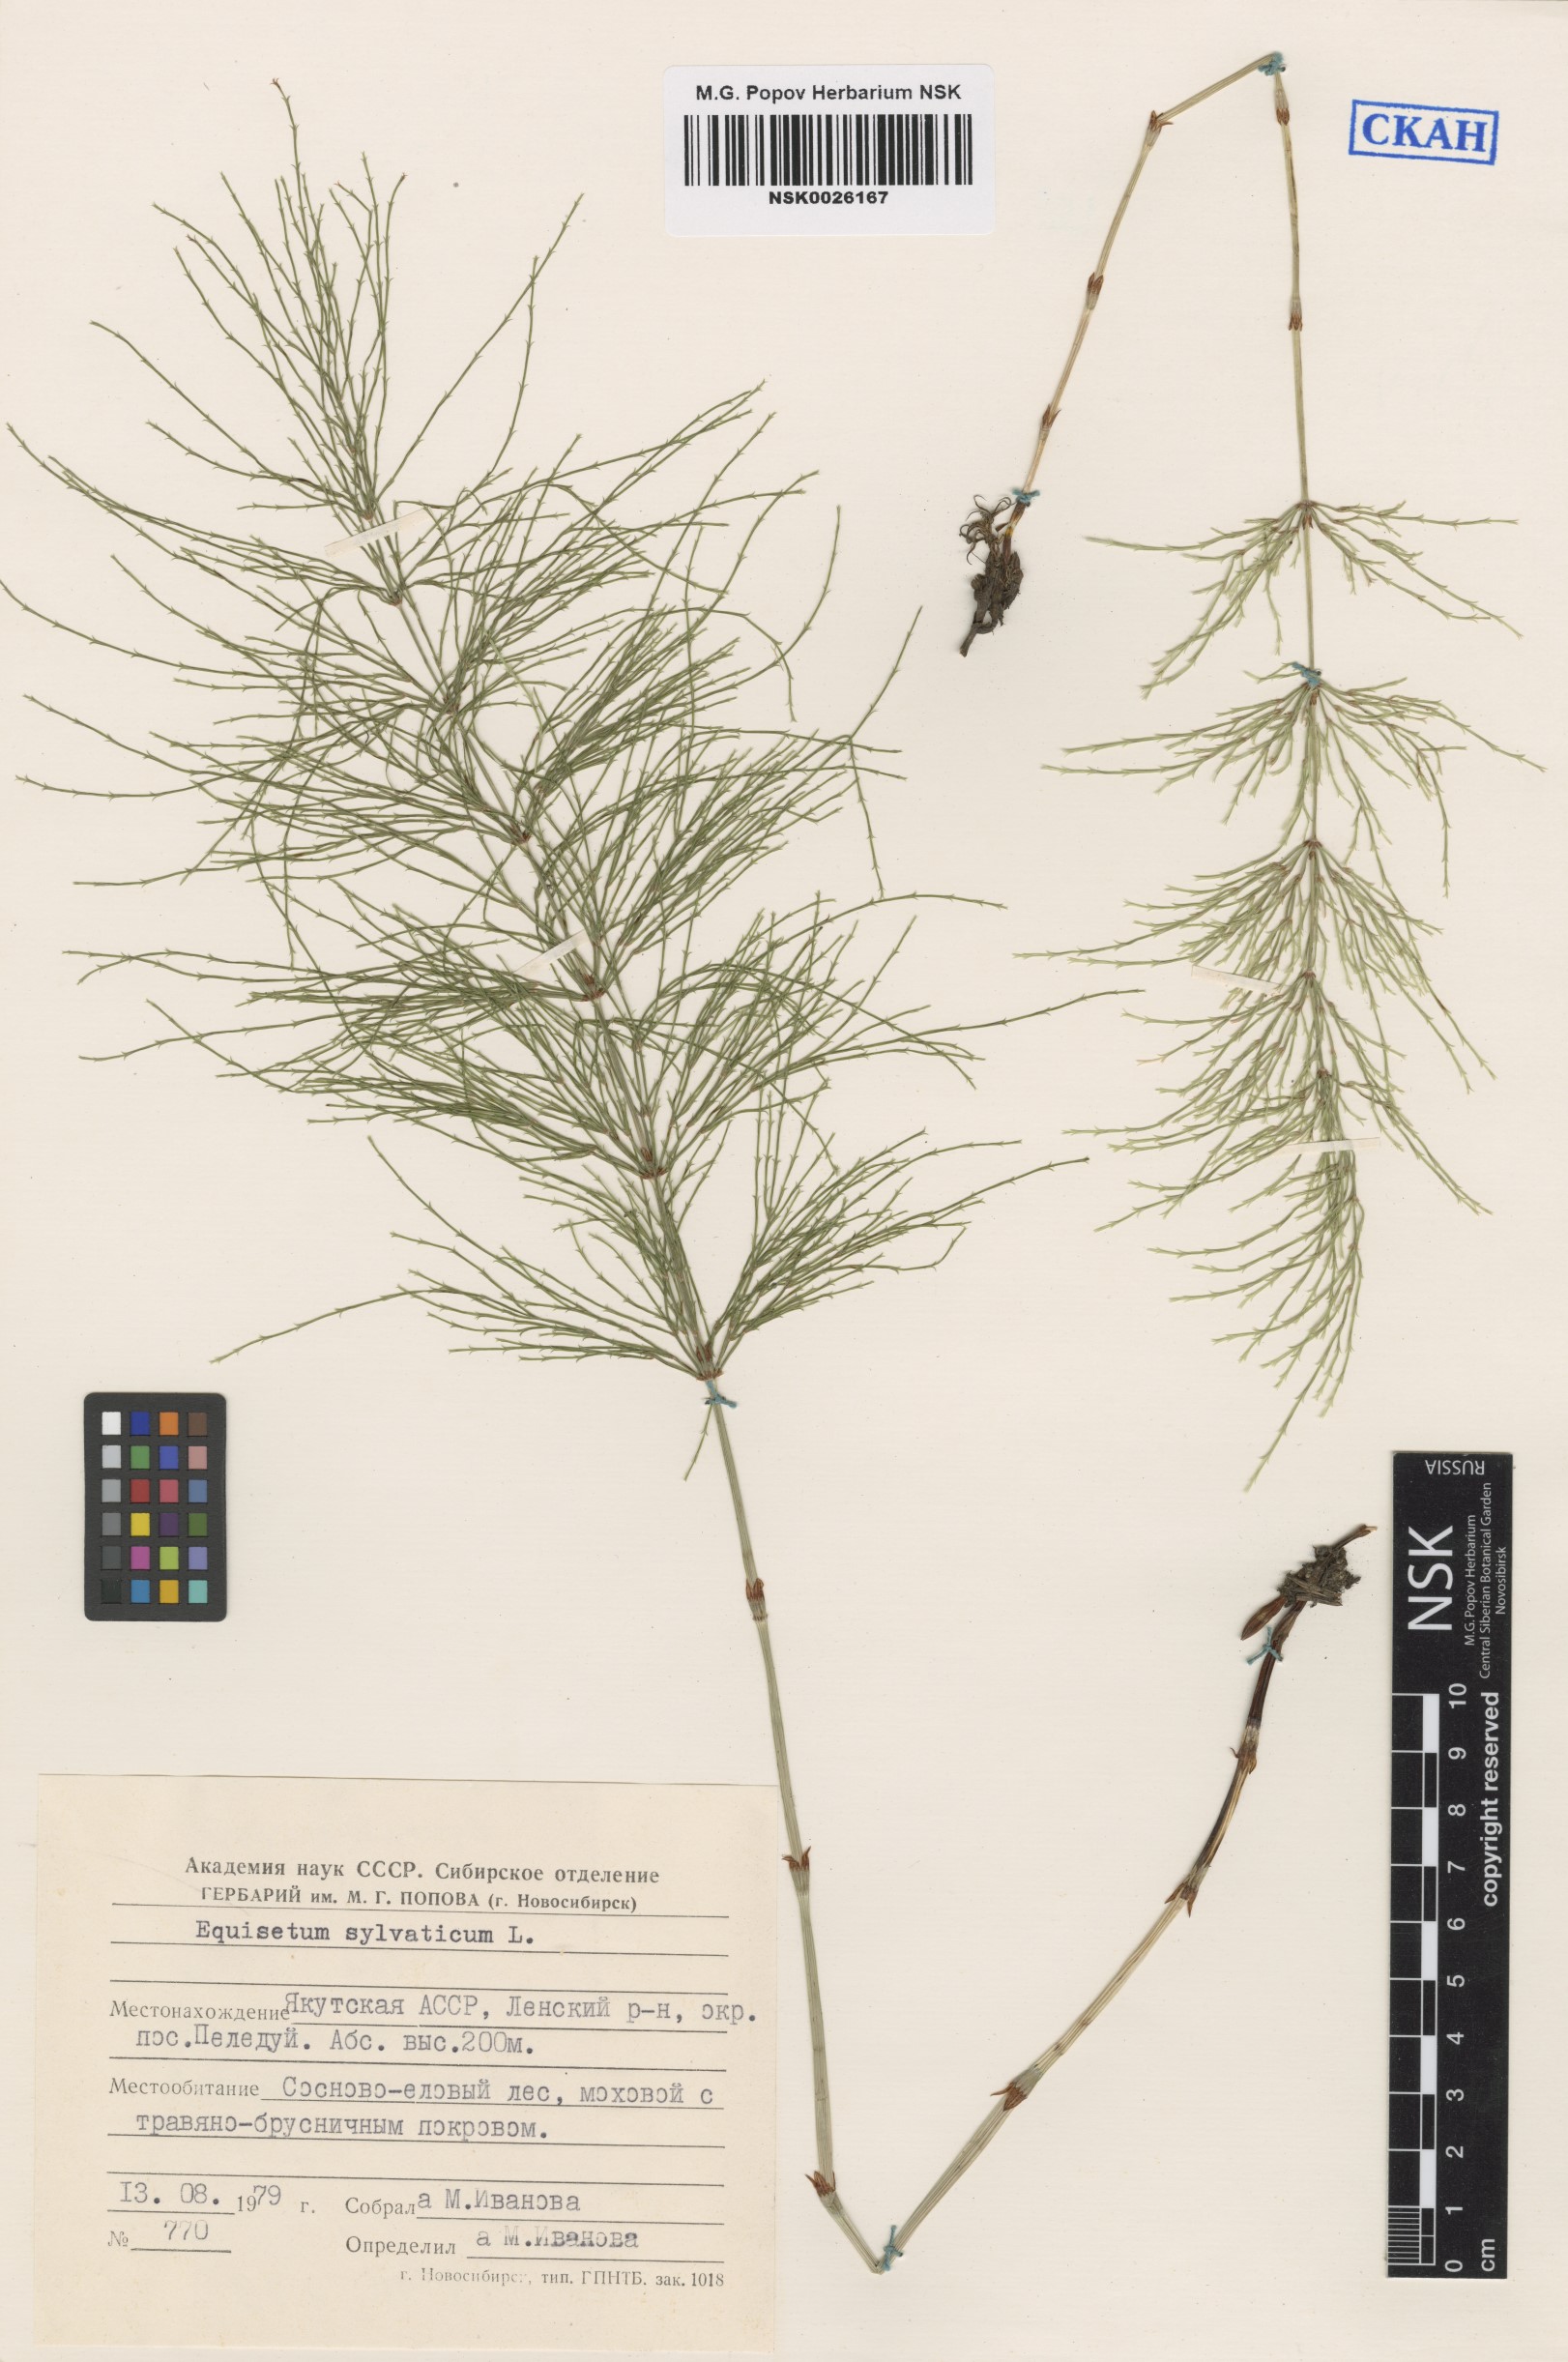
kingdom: Plantae
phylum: Tracheophyta
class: Polypodiopsida
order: Equisetales
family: Equisetaceae
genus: Equisetum
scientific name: Equisetum sylvaticum
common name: Wood horsetail
